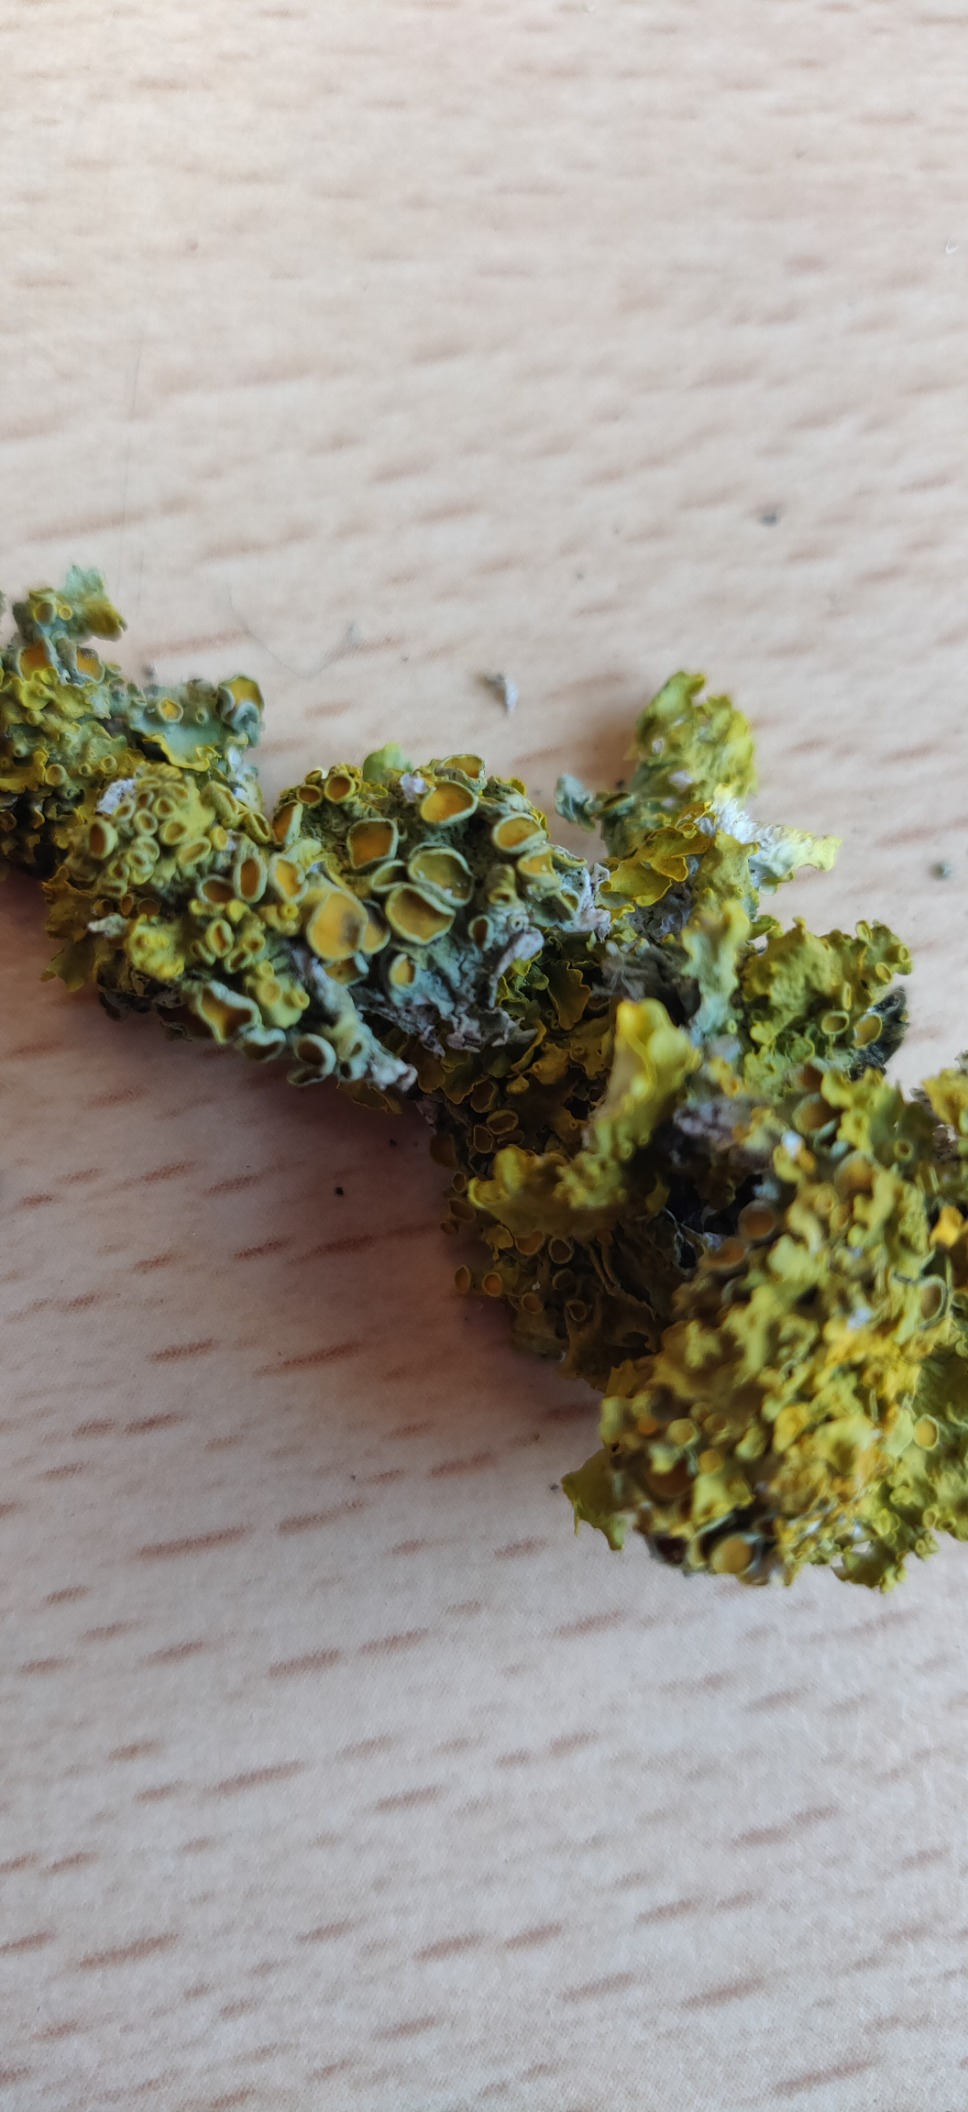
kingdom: Fungi
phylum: Ascomycota
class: Lecanoromycetes
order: Teloschistales
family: Teloschistaceae
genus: Xanthoria
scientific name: Xanthoria parietina
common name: Almindelig væggelav
